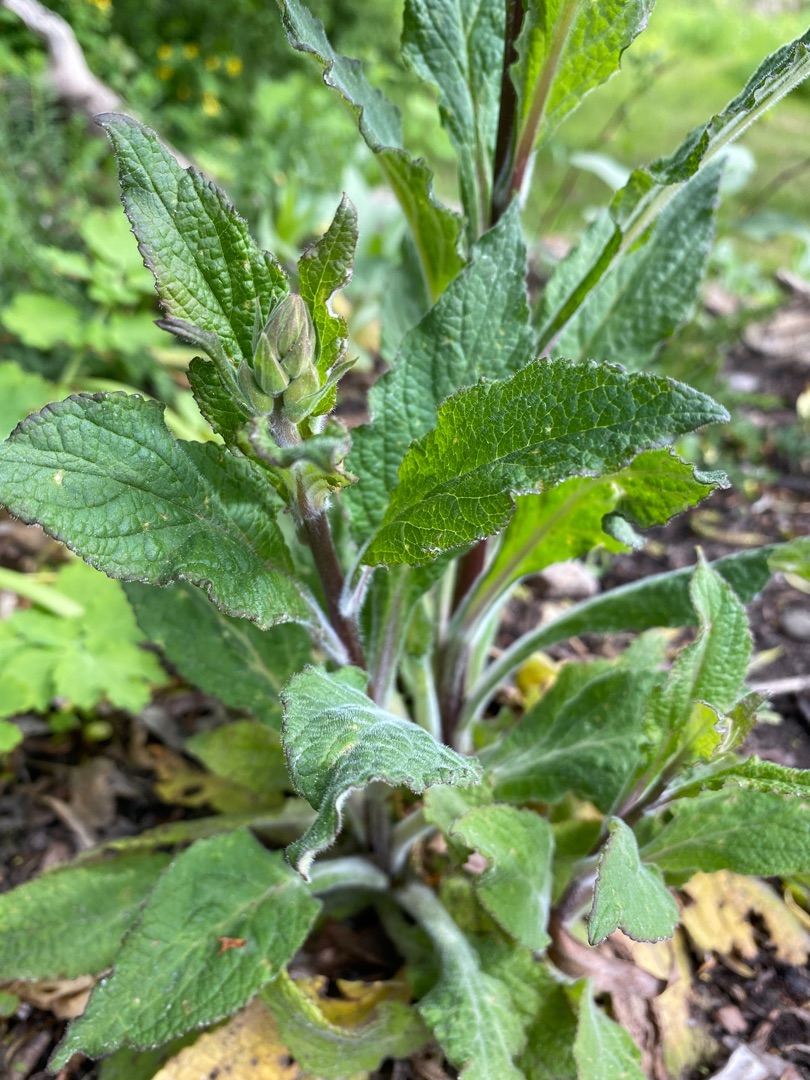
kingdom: Plantae
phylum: Tracheophyta
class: Magnoliopsida
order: Lamiales
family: Plantaginaceae
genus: Digitalis
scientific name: Digitalis purpurea
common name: Almindelig fingerbøl
